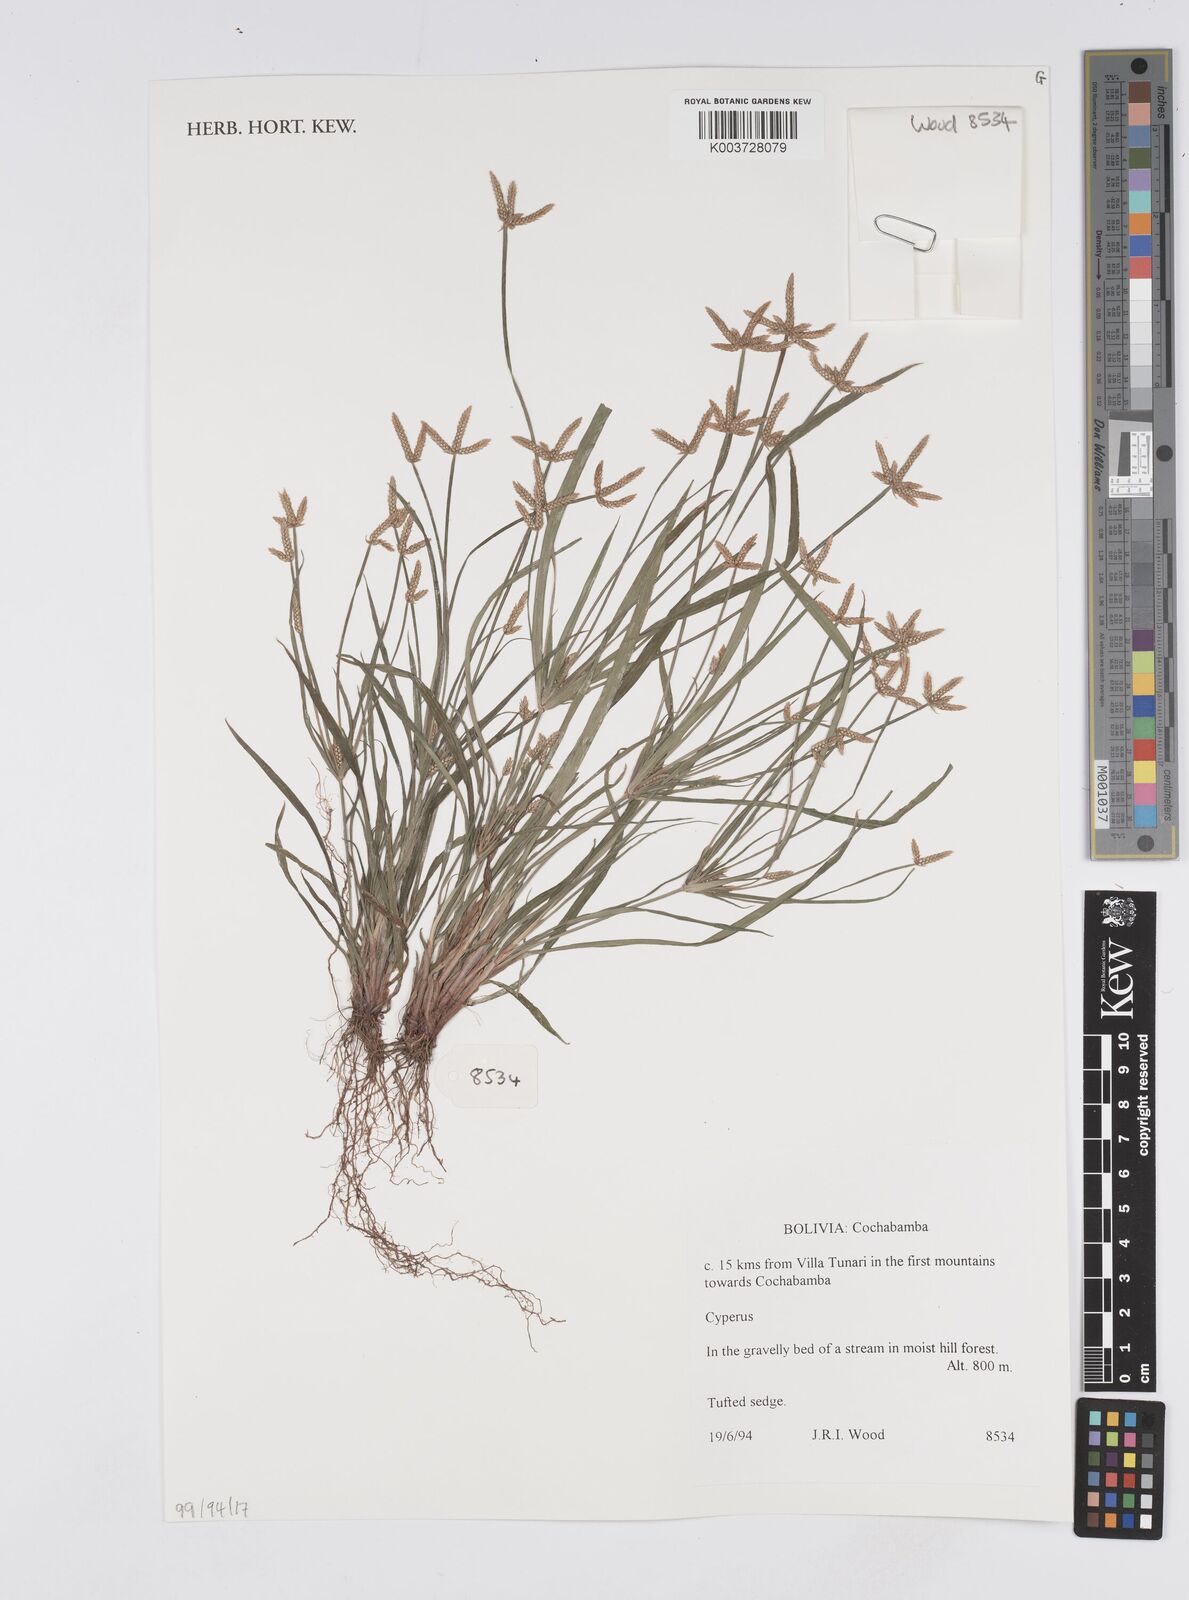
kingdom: Plantae
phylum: Tracheophyta
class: Liliopsida
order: Poales
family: Cyperaceae
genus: Cyperus
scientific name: Cyperus
